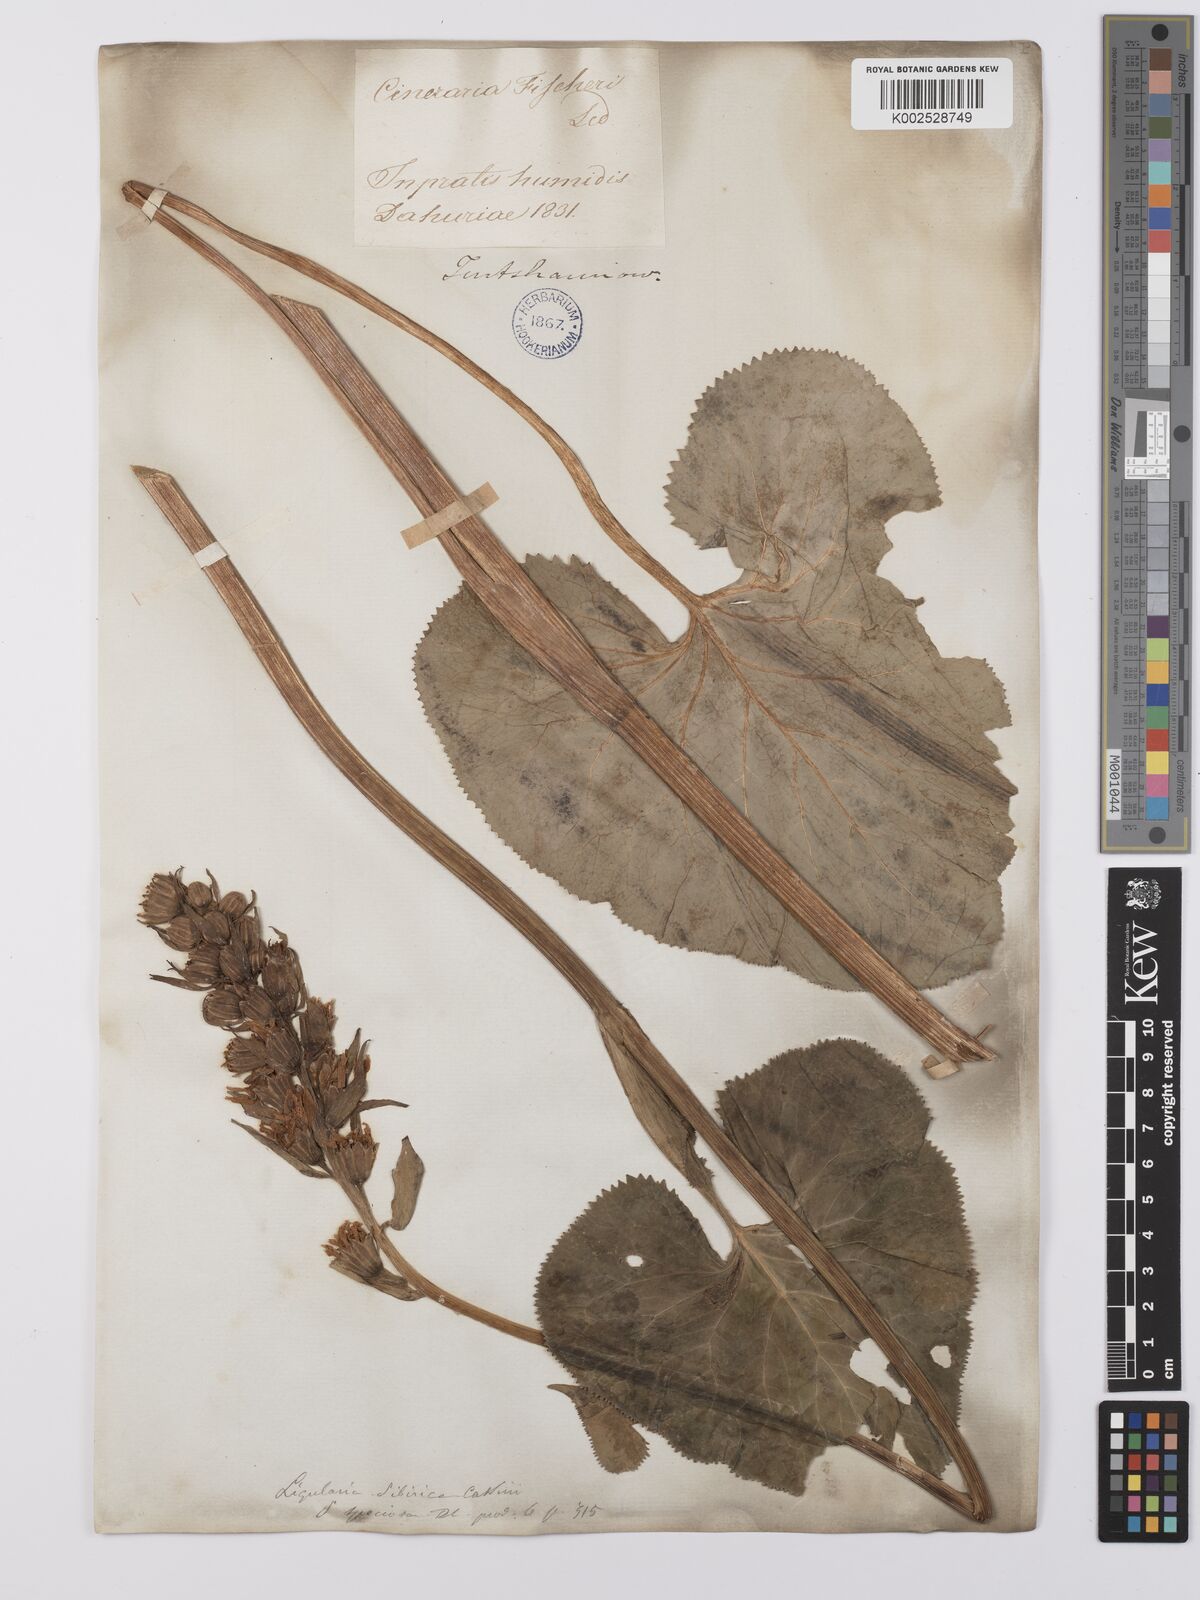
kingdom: Plantae
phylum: Tracheophyta
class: Magnoliopsida
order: Asterales
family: Asteraceae
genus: Ligularia
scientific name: Ligularia fischeri
